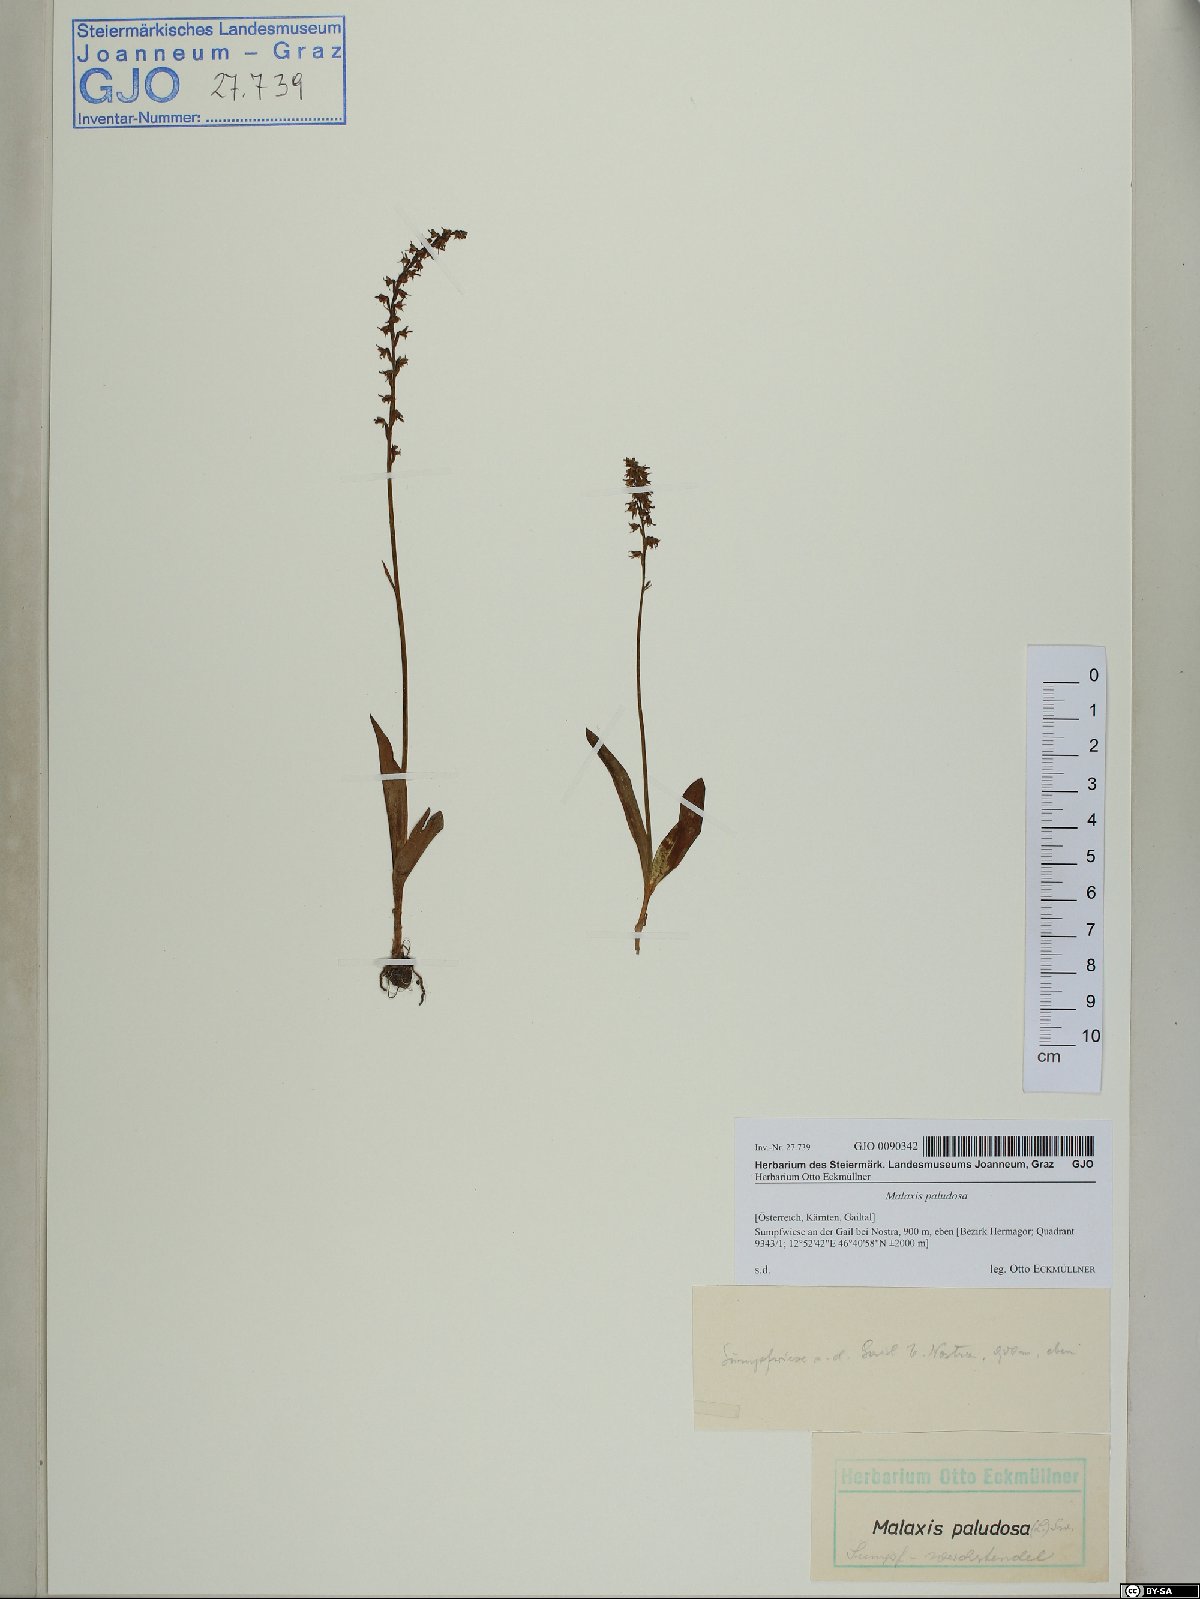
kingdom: Plantae
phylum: Tracheophyta
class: Liliopsida
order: Asparagales
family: Orchidaceae
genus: Hammarbya
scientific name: Hammarbya paludosa
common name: Bog orchid
